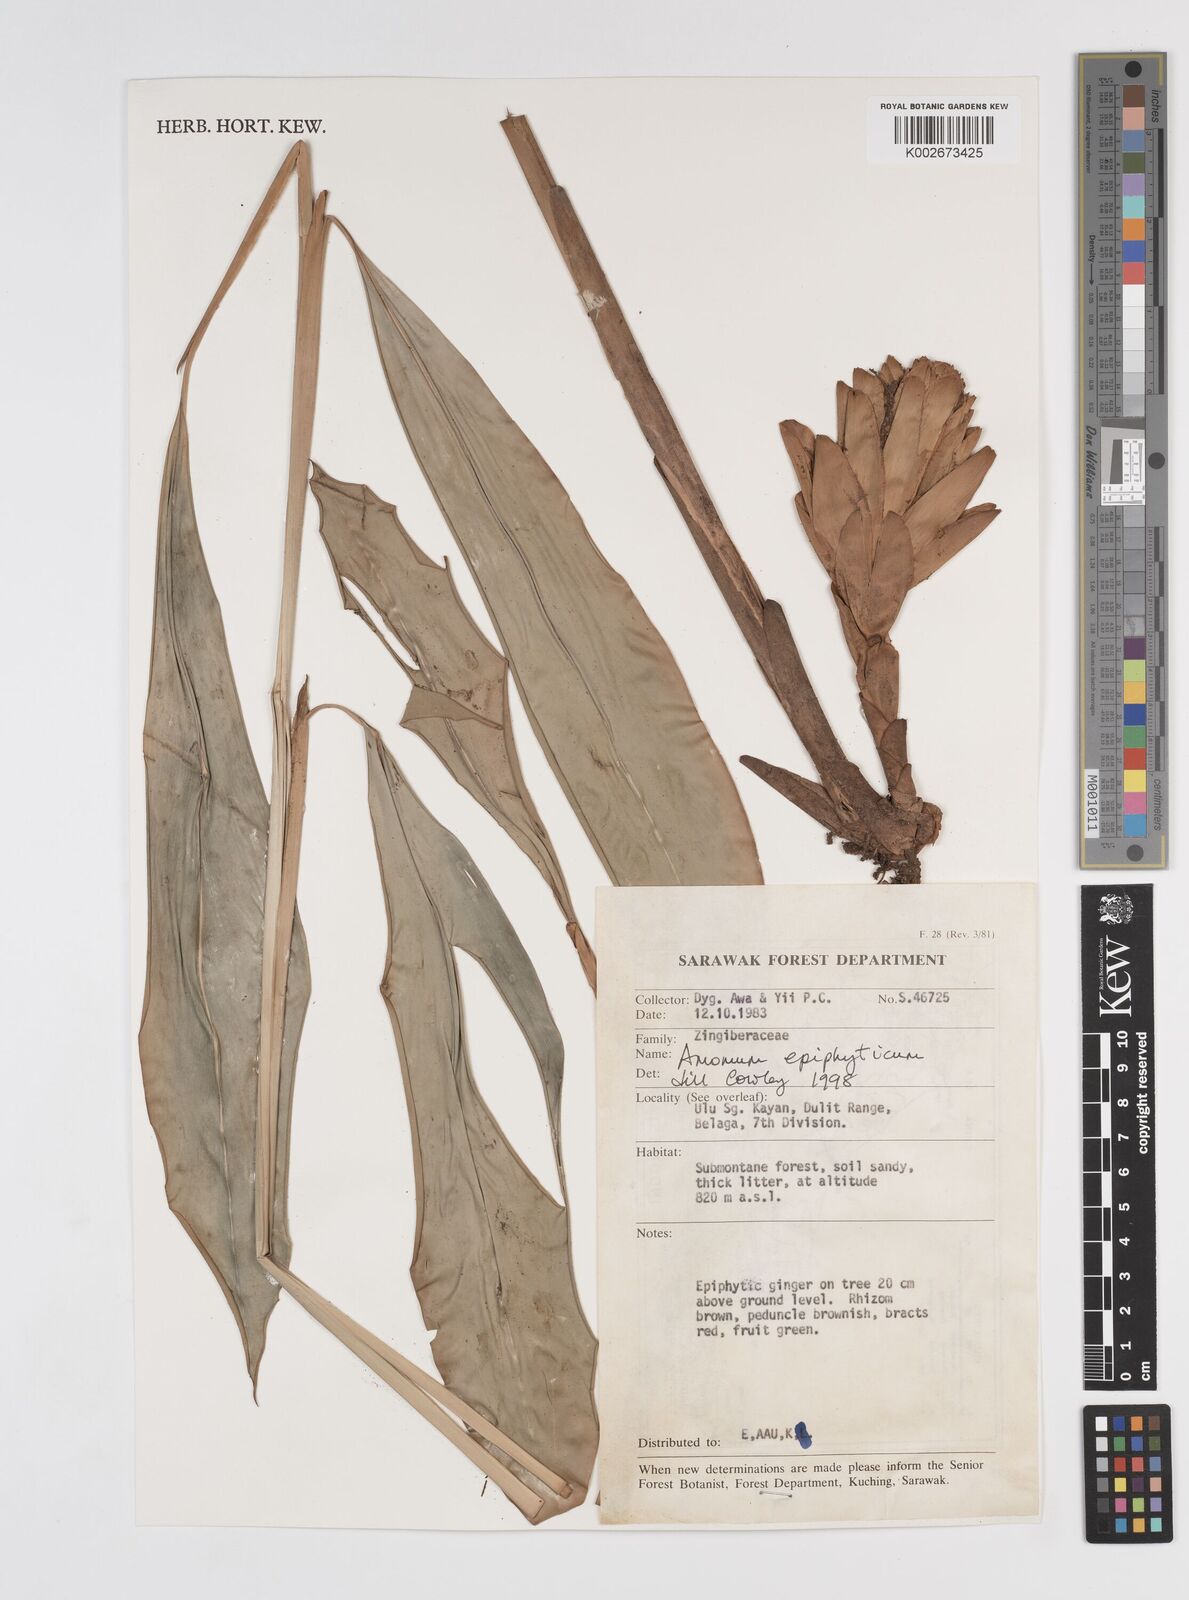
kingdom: Plantae
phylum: Tracheophyta
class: Liliopsida
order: Zingiberales
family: Zingiberaceae
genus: Epiamomum
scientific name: Epiamomum epiphyticum
